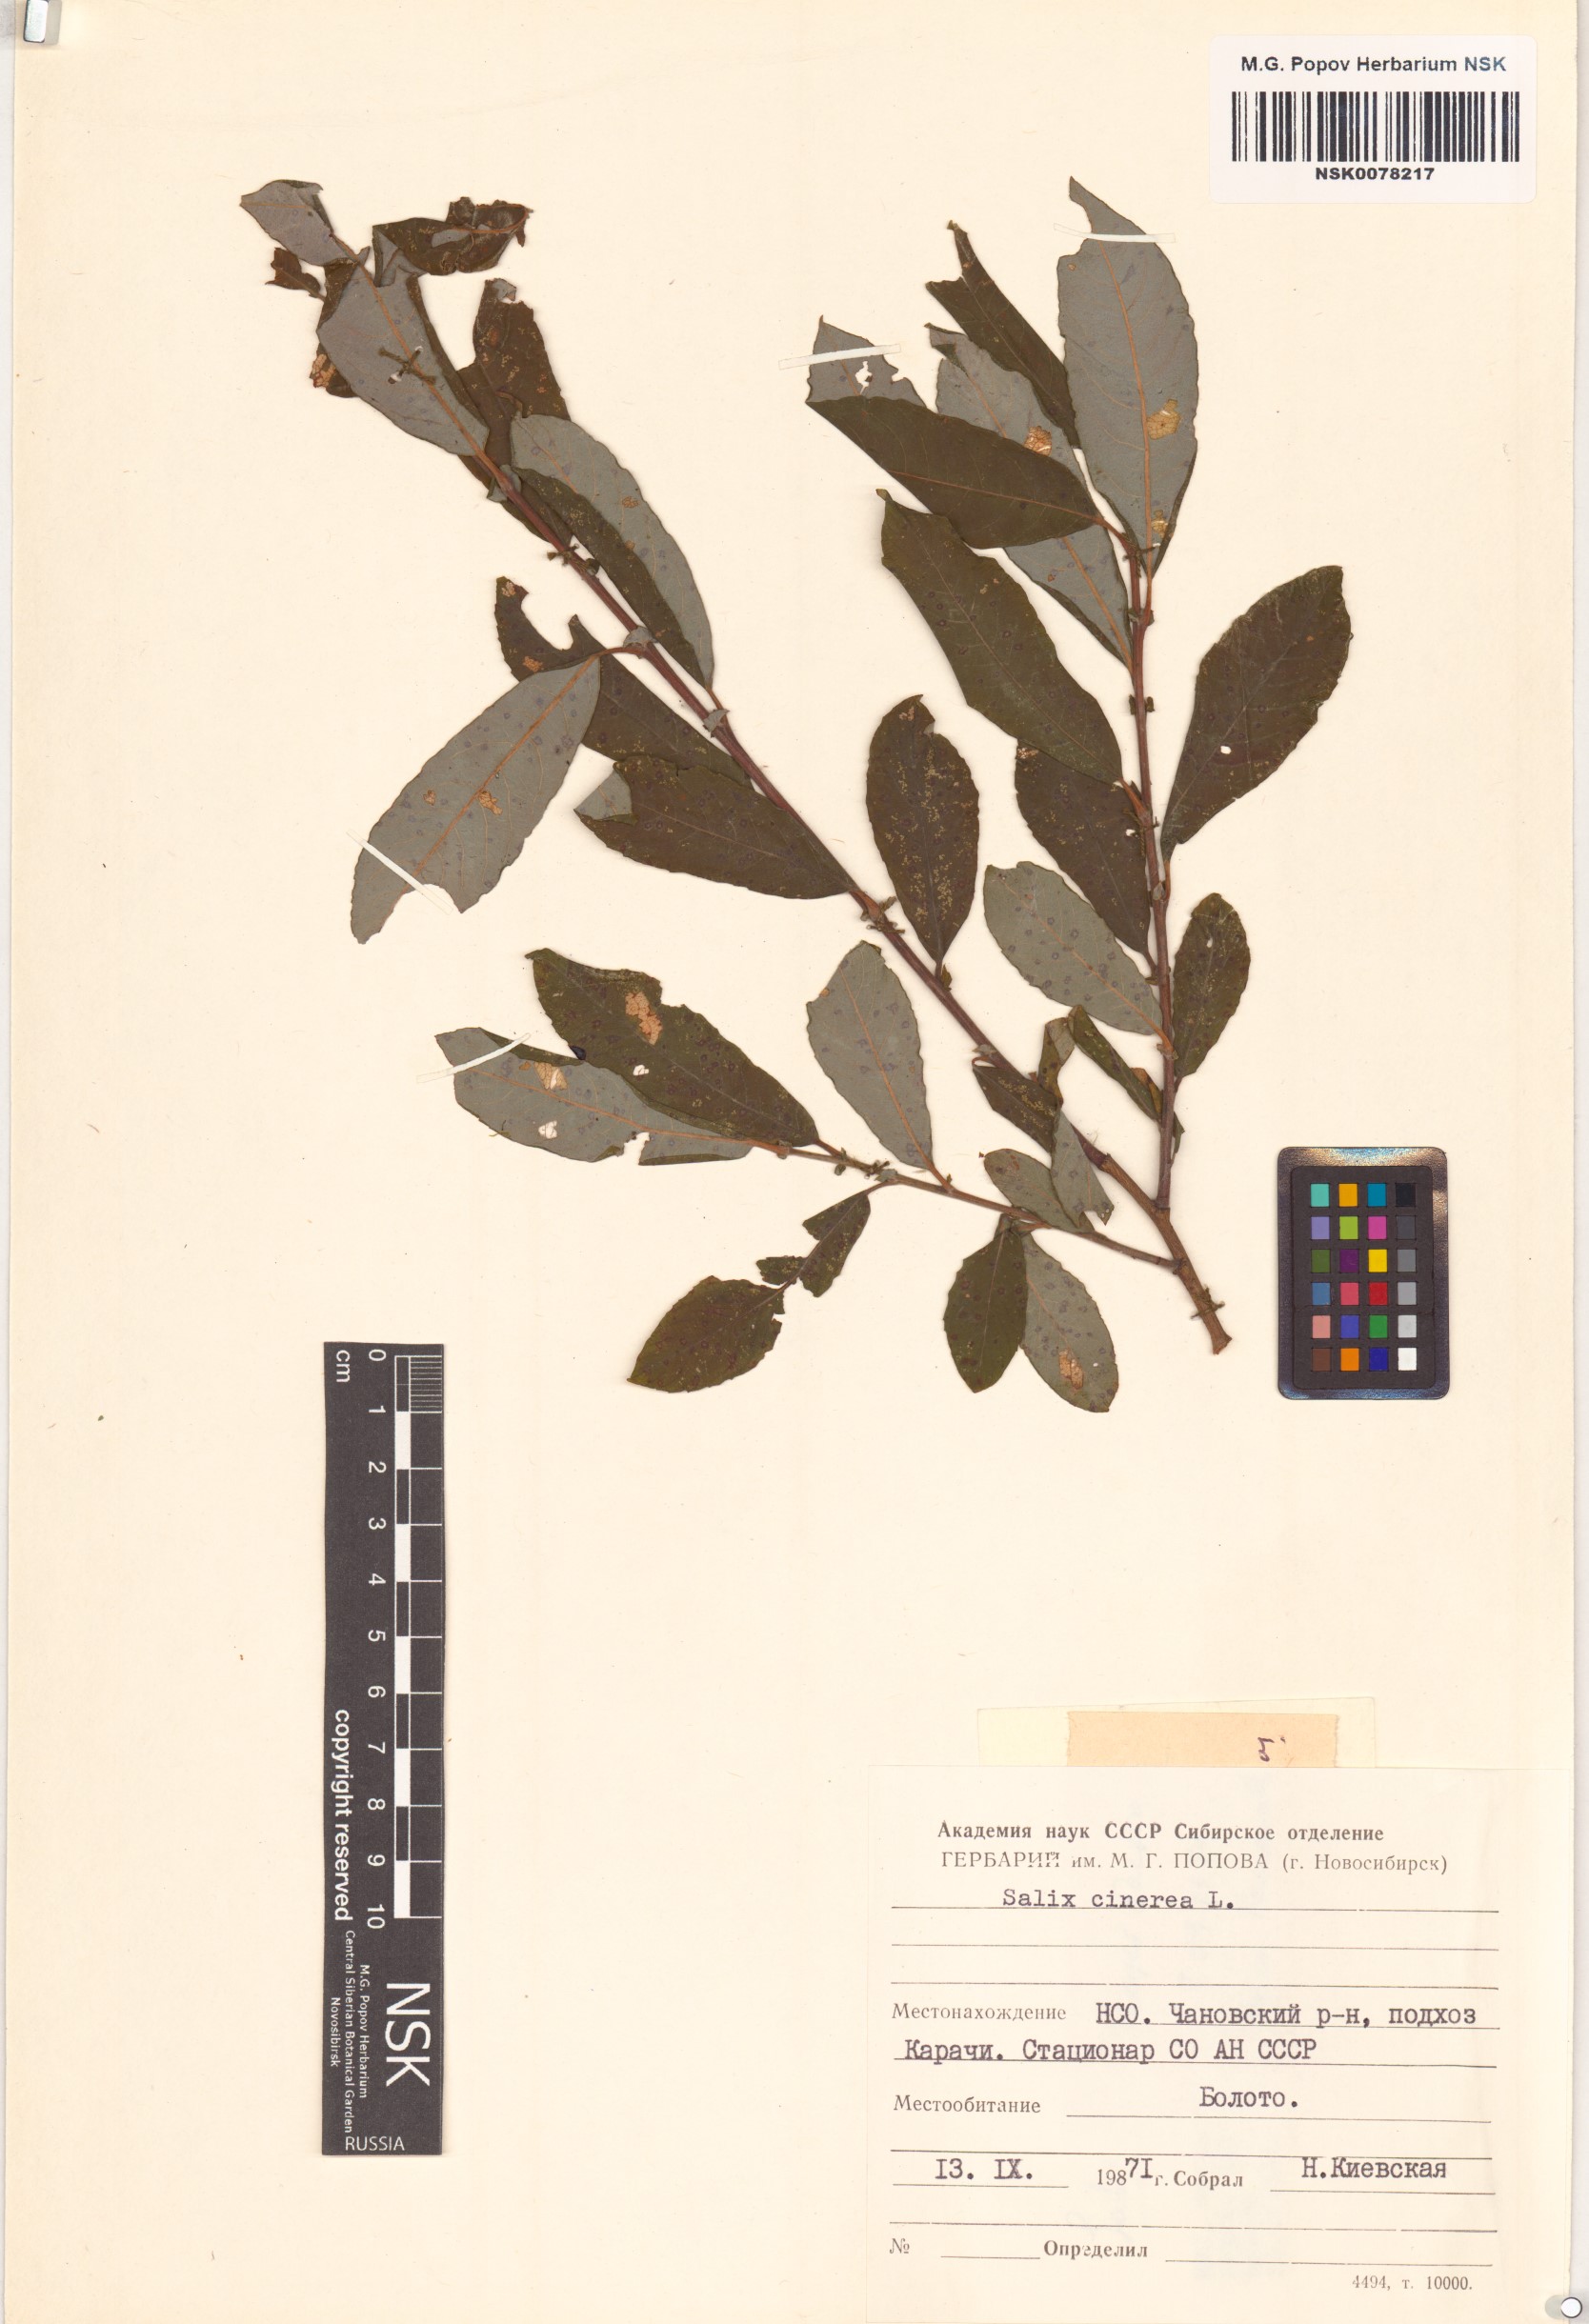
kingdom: Plantae
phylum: Tracheophyta
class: Magnoliopsida
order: Malpighiales
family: Salicaceae
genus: Salix
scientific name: Salix cinerea
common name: Common sallow
